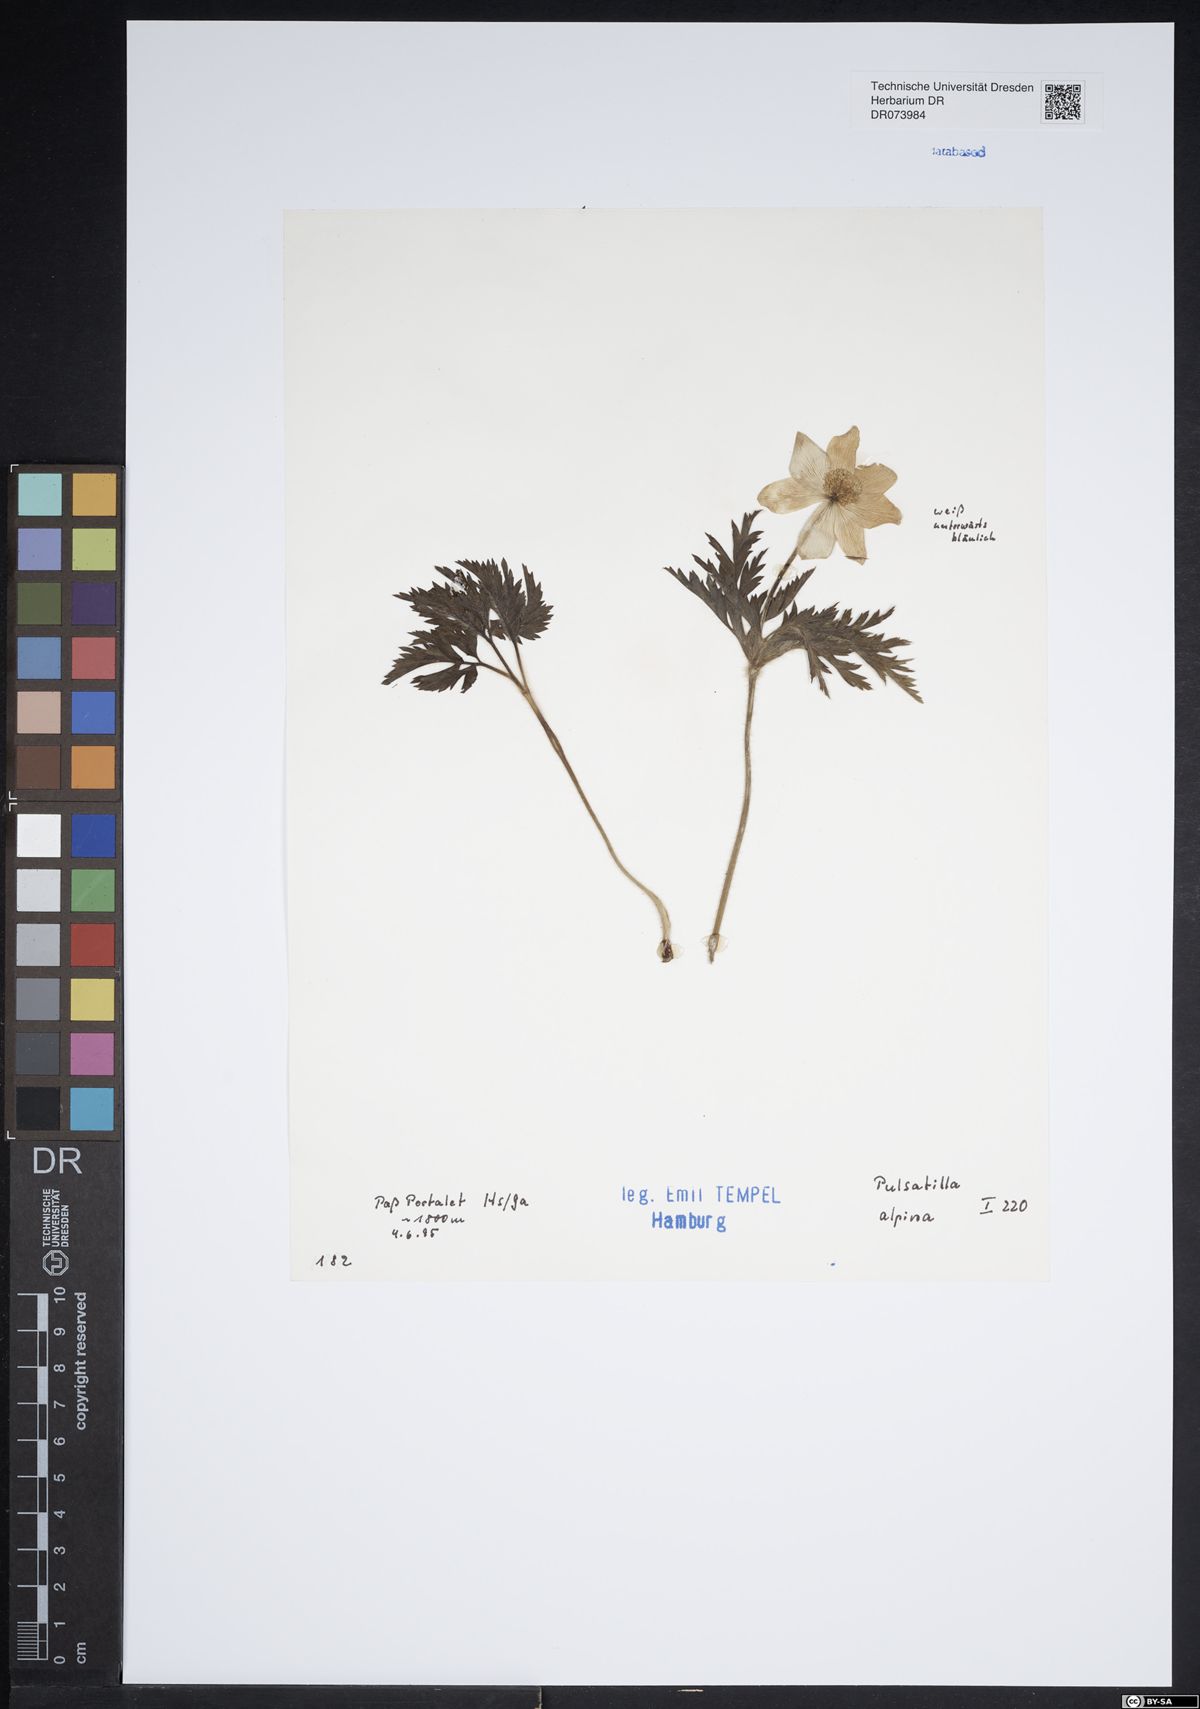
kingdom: Plantae
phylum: Tracheophyta
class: Magnoliopsida
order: Ranunculales
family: Ranunculaceae
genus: Pulsatilla
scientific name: Pulsatilla alpina
